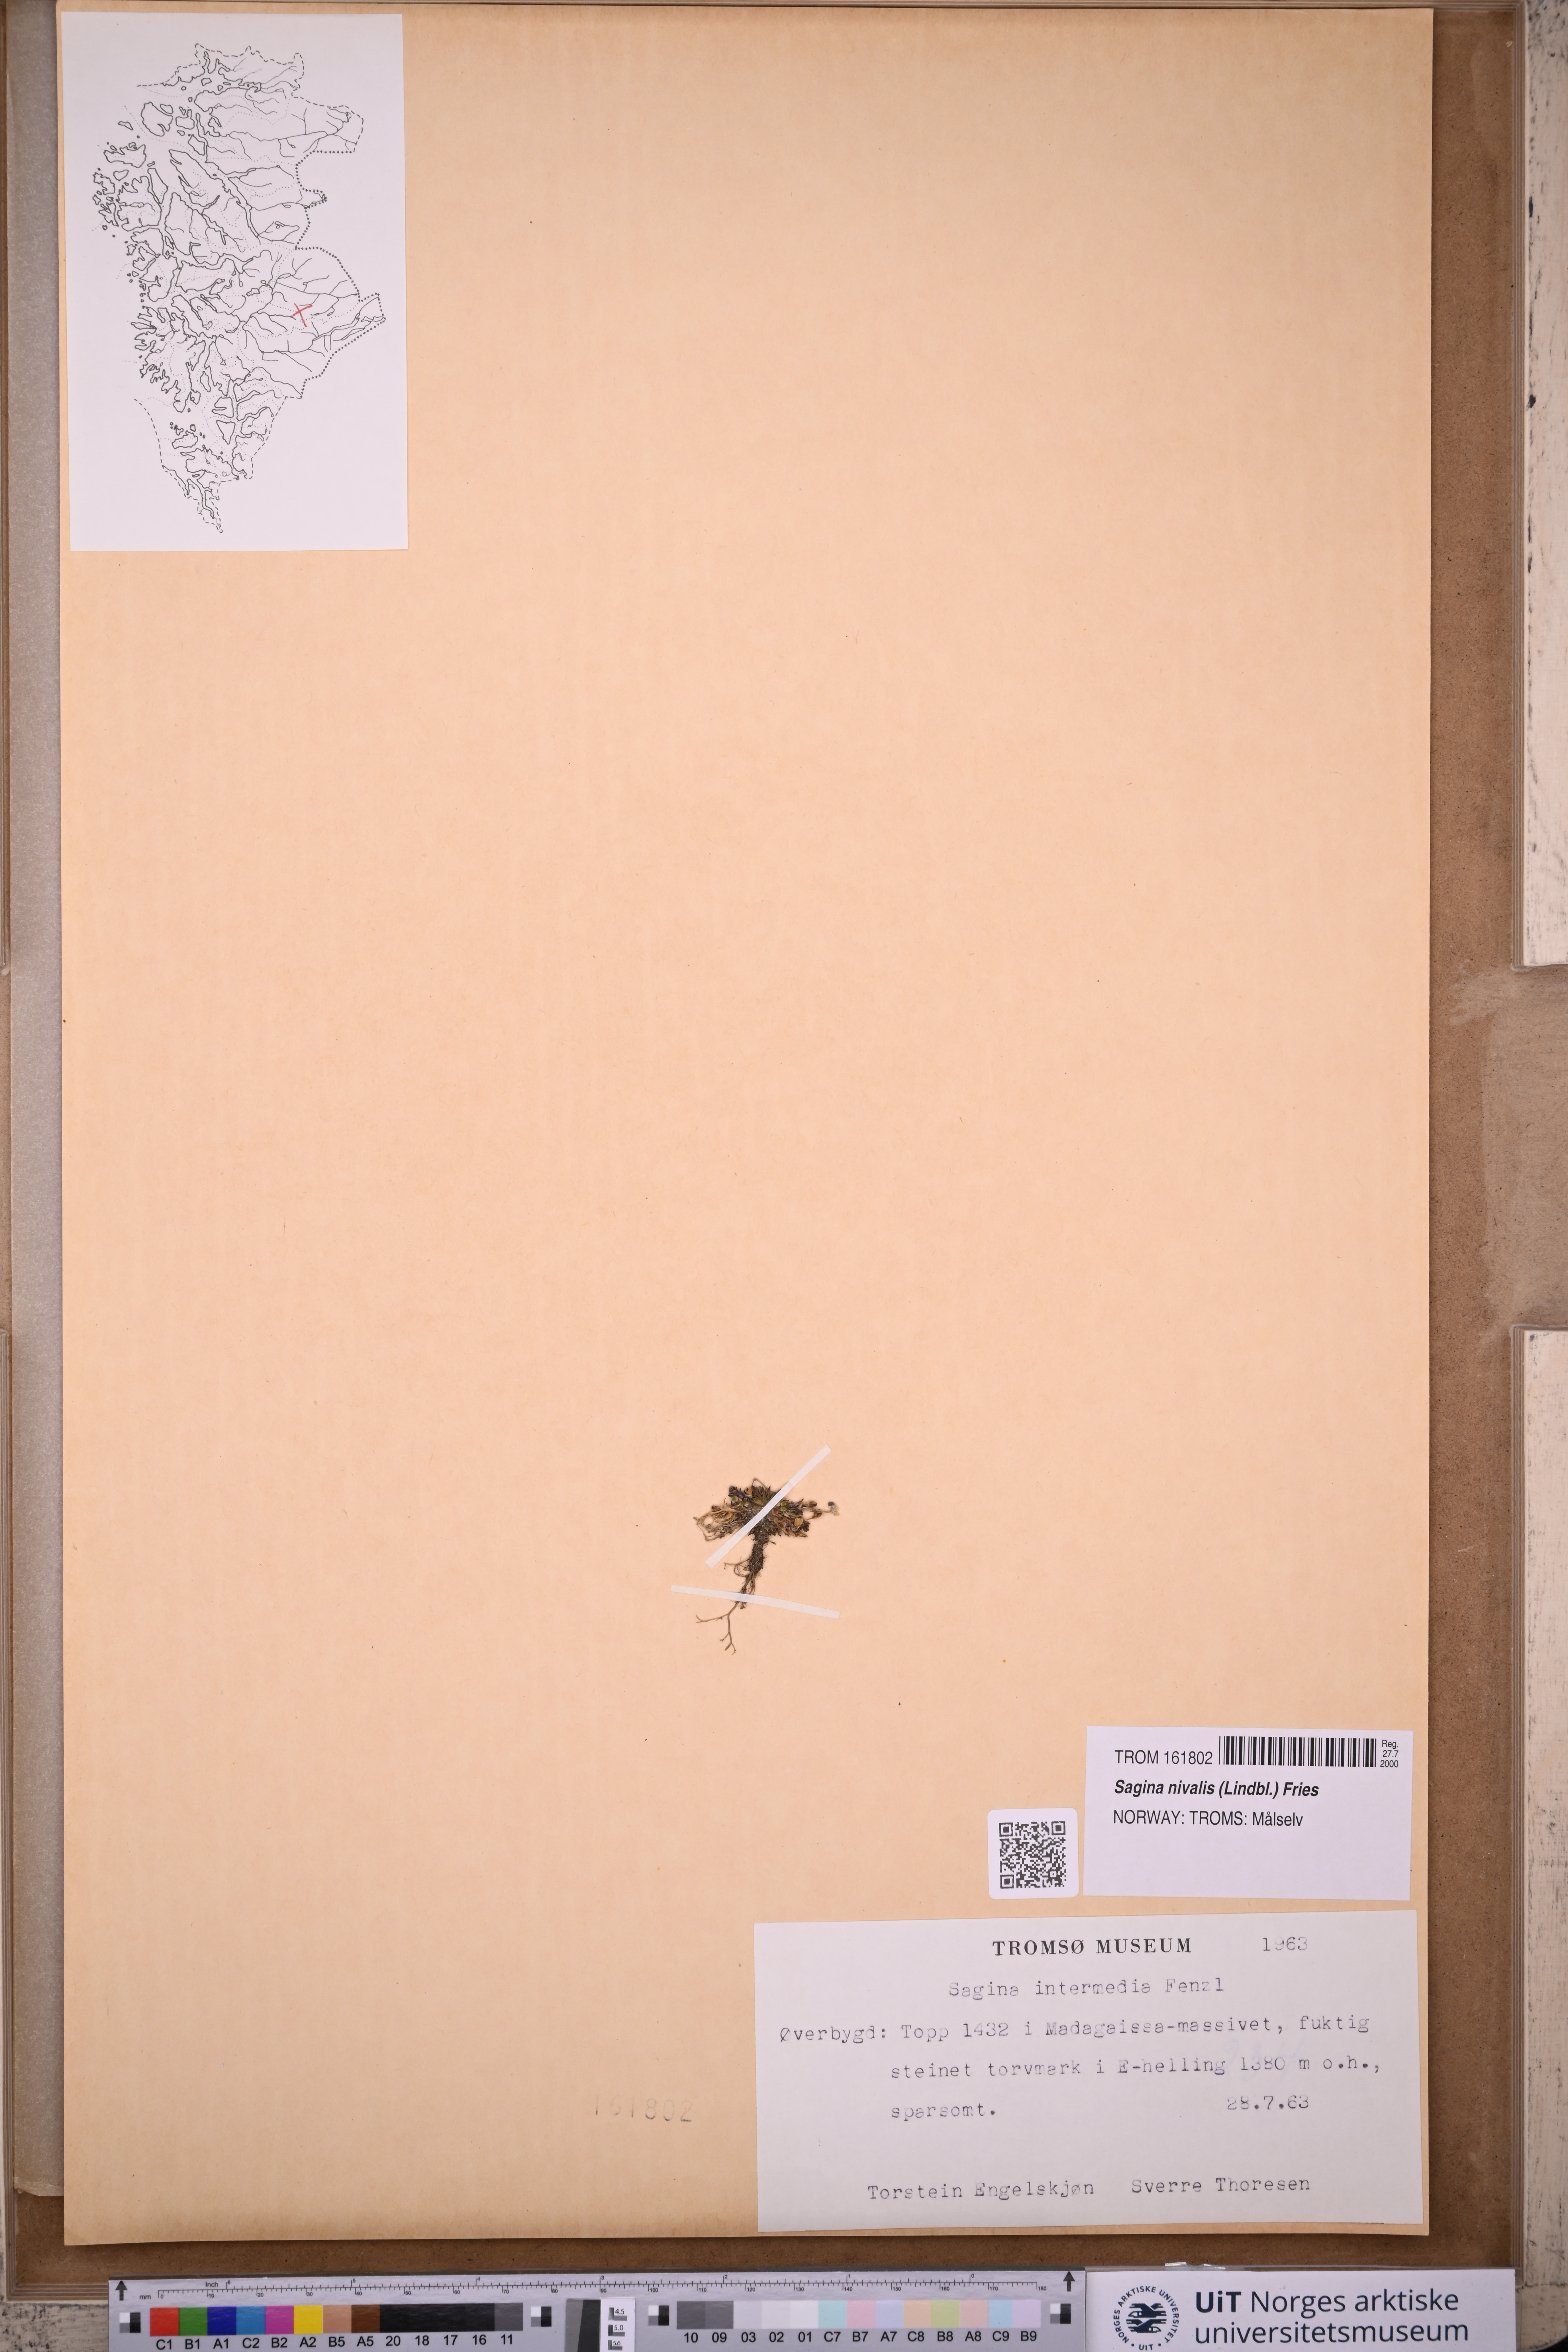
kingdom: Plantae
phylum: Tracheophyta
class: Magnoliopsida
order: Caryophyllales
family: Caryophyllaceae
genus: Sagina
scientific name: Sagina nivalis
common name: Snow pearlwort
